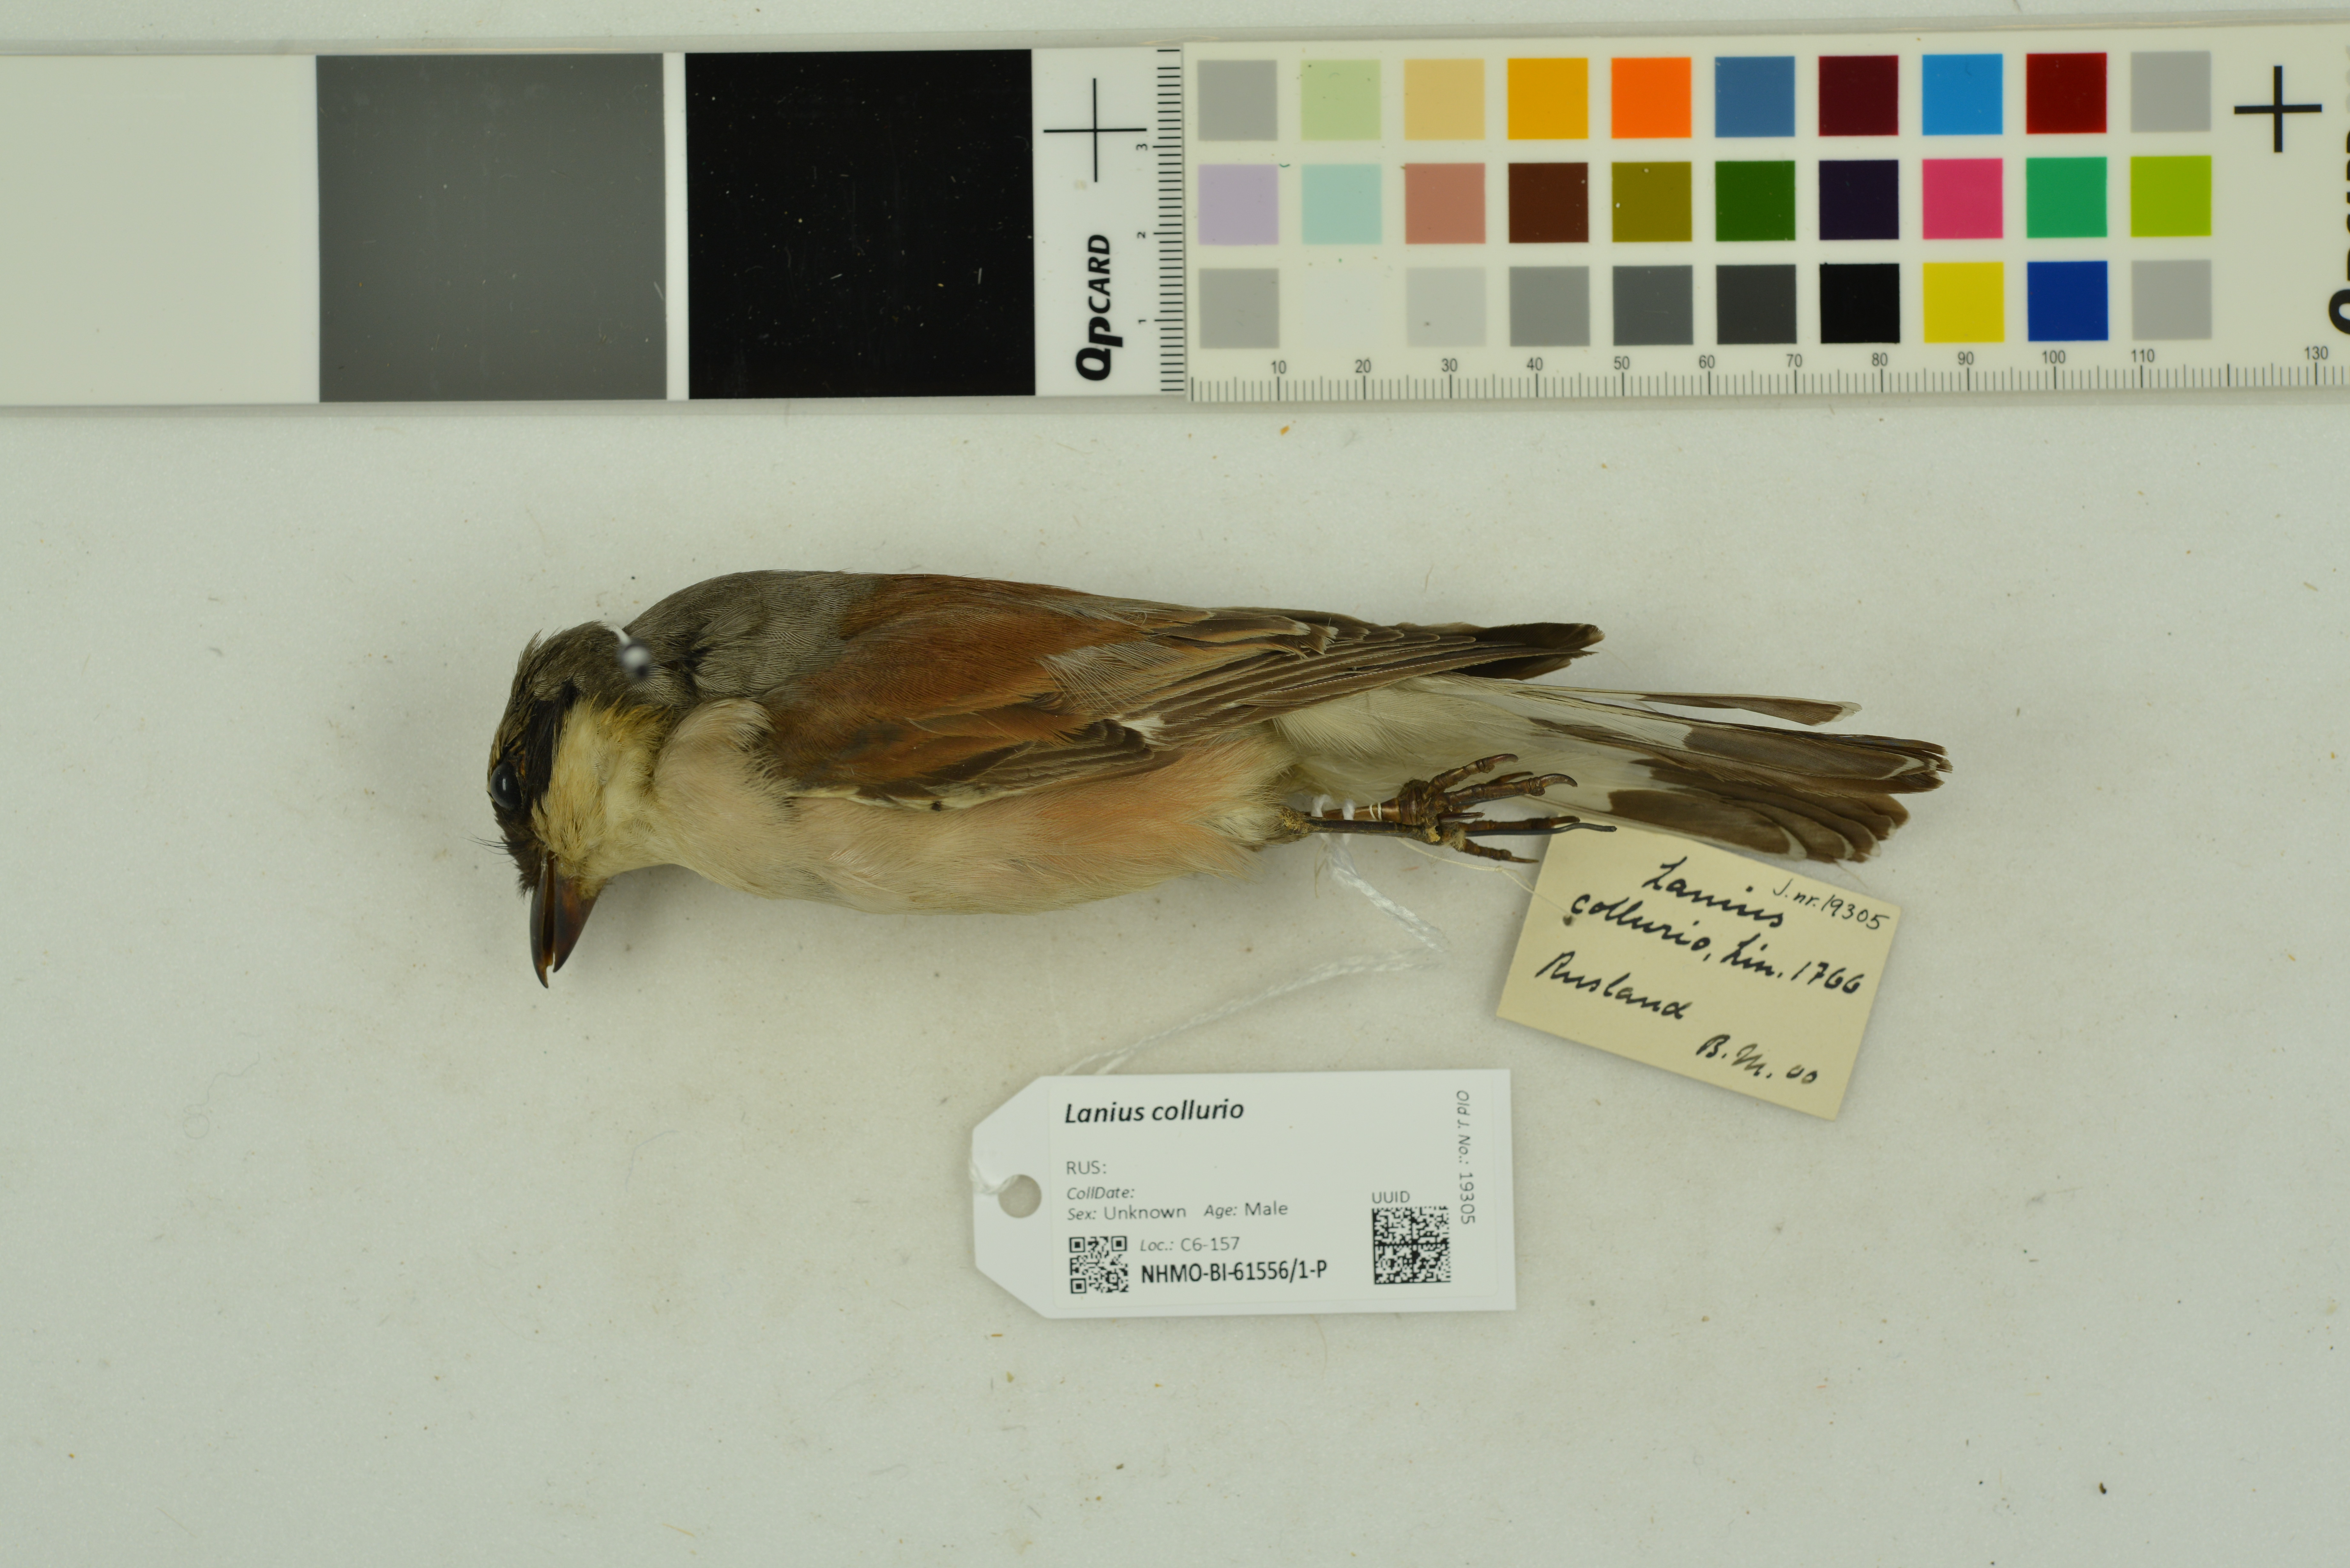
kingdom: Animalia
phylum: Chordata
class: Aves
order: Passeriformes
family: Laniidae
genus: Lanius
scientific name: Lanius collurio
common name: Red-backed shrike
